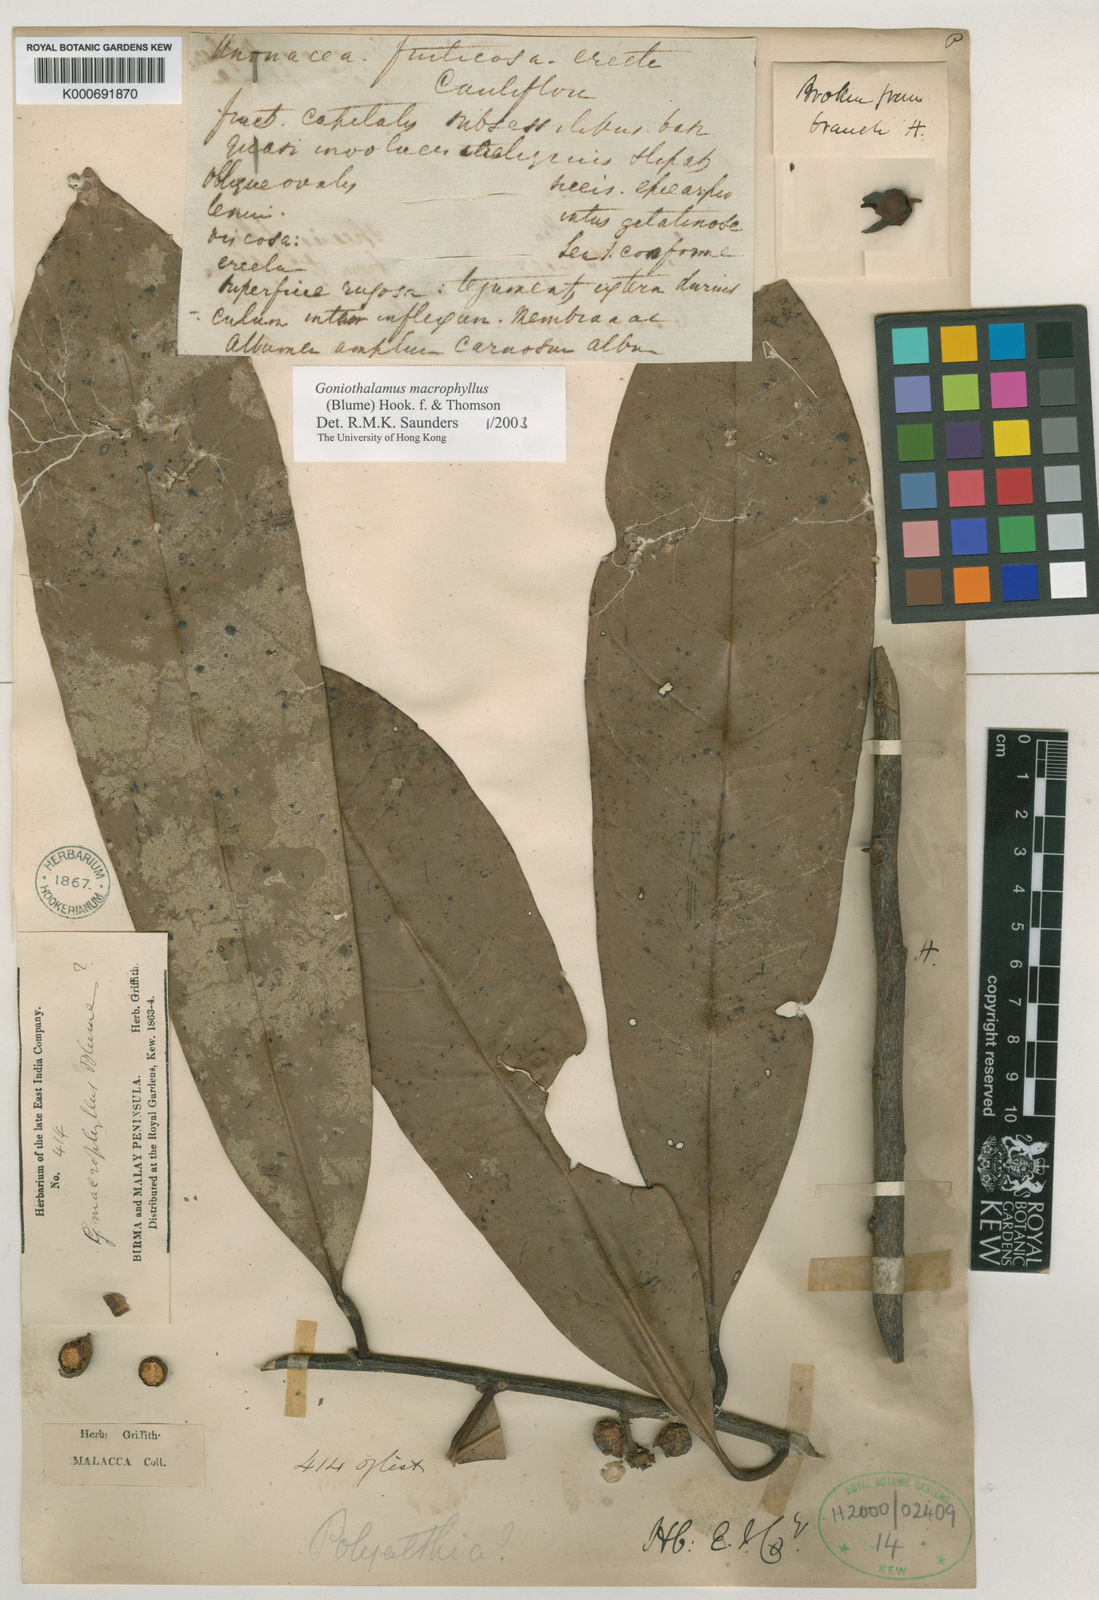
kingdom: Plantae
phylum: Tracheophyta
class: Magnoliopsida
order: Magnoliales
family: Annonaceae
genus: Goniothalamus
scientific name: Goniothalamus
